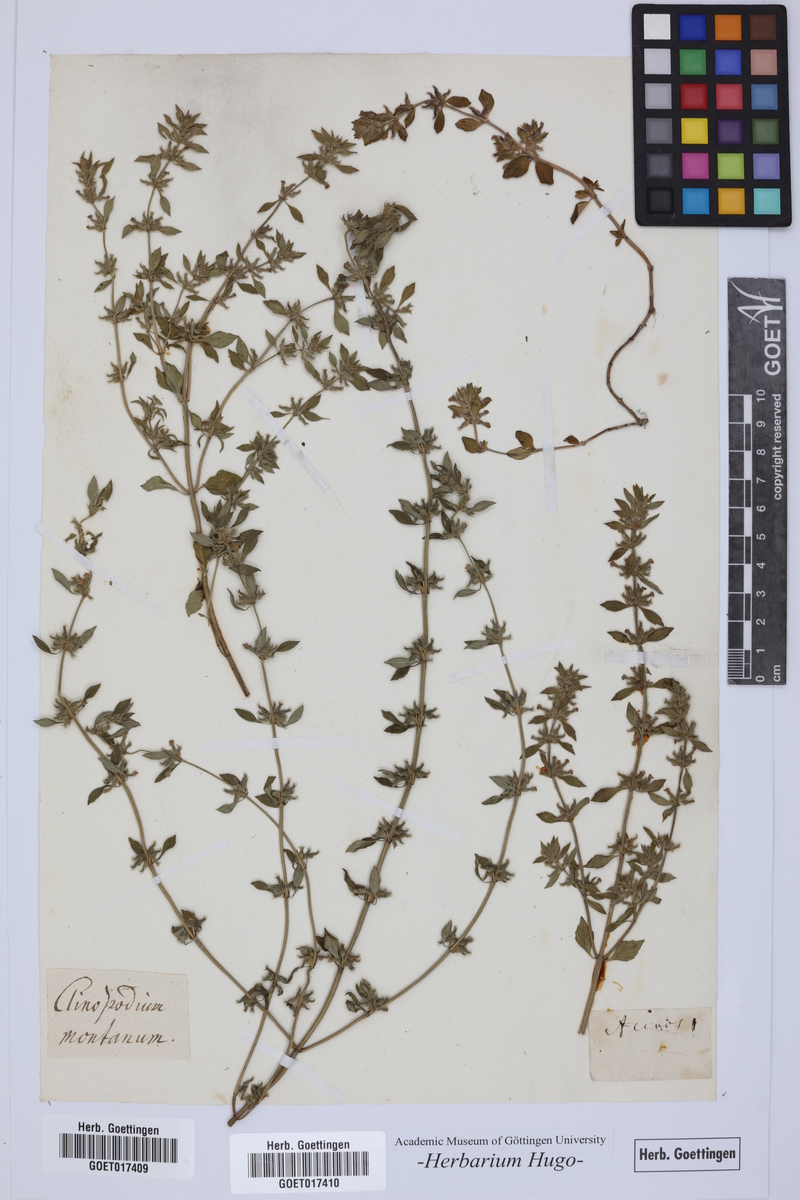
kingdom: Plantae
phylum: Tracheophyta
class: Magnoliopsida
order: Lamiales
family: Lamiaceae
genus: Clinopodium
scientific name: Clinopodium alpinum
